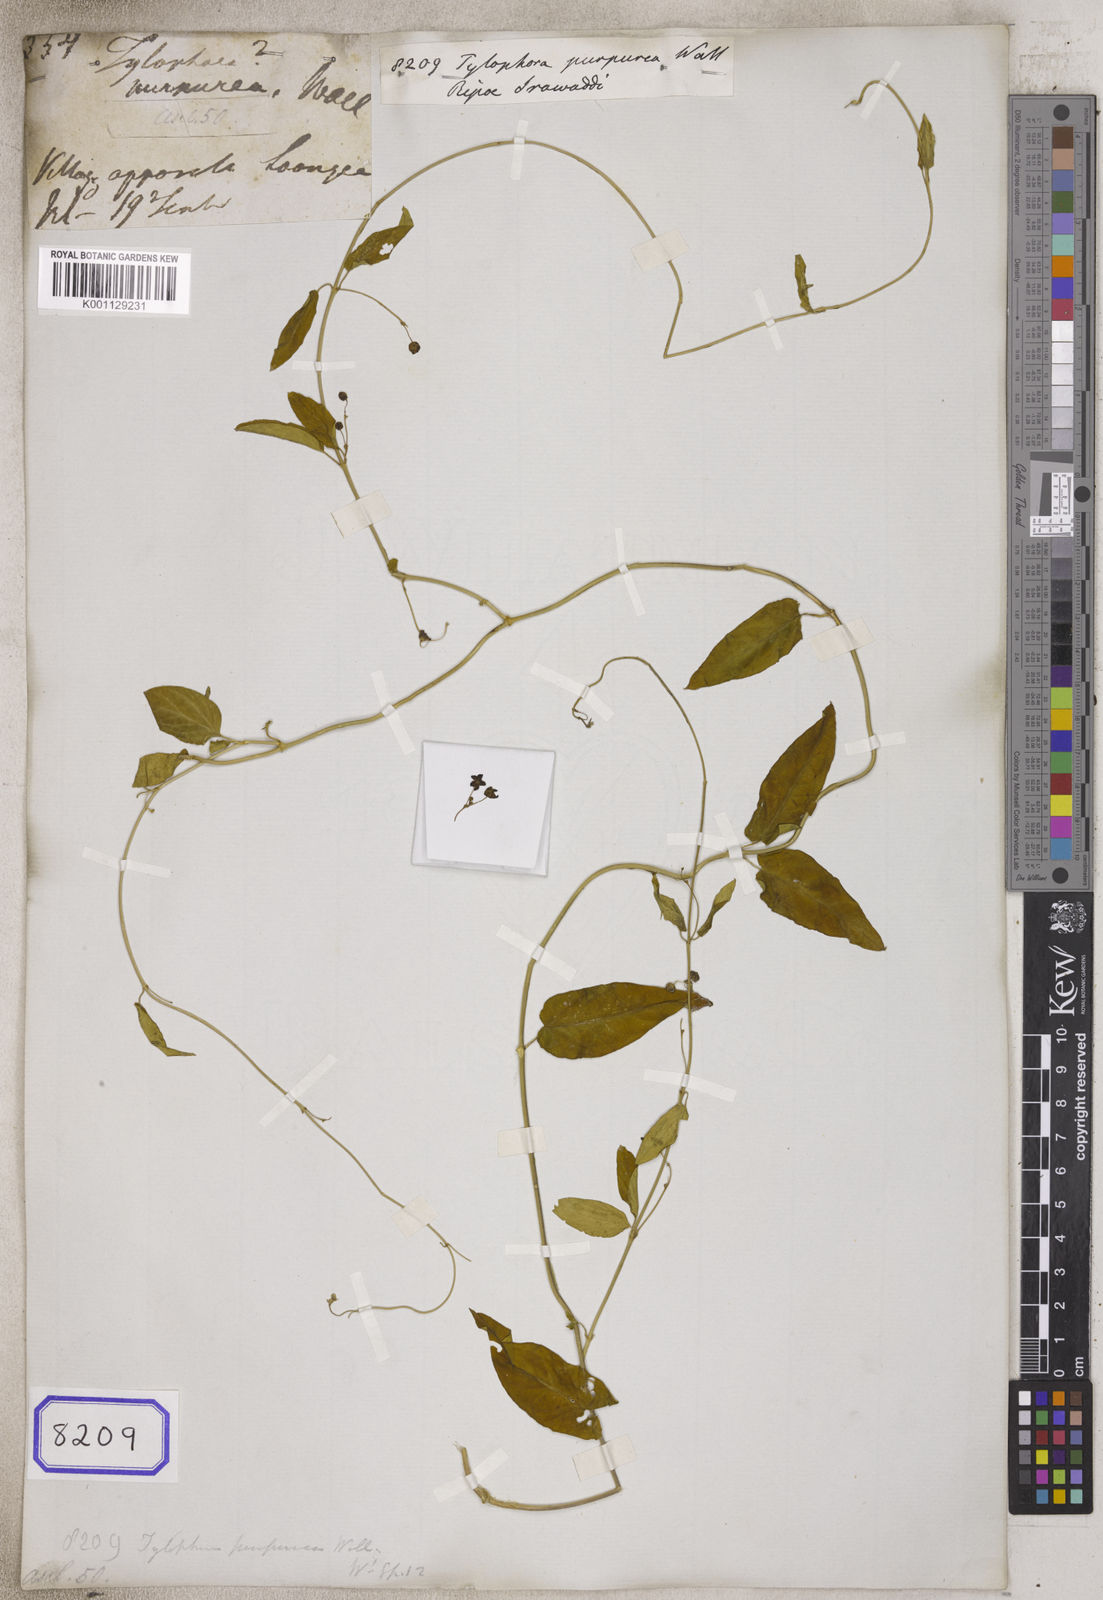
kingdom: Plantae
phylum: Tracheophyta
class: Magnoliopsida
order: Gentianales
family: Apocynaceae
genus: Vincetoxicum
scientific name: Vincetoxicum irrawadense
